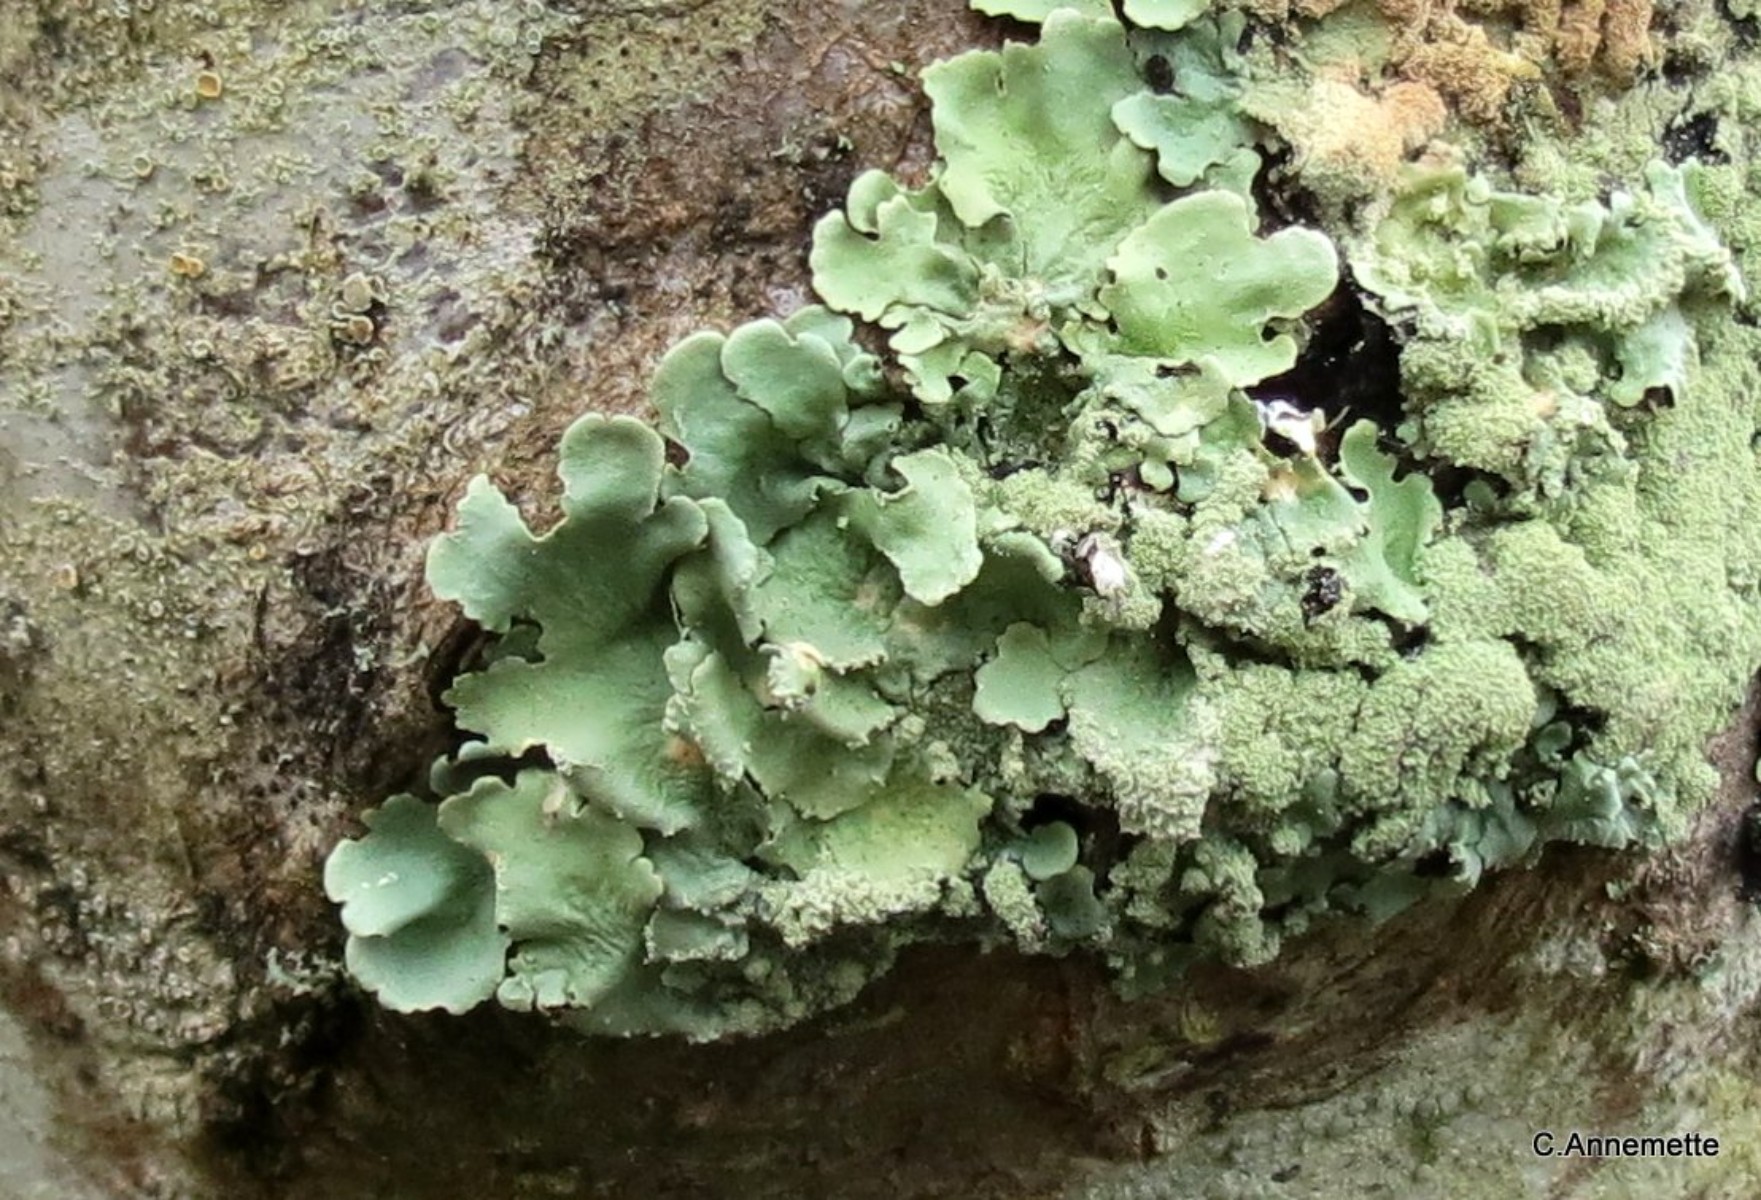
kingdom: Fungi
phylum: Ascomycota
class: Lecanoromycetes
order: Lecanorales
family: Parmeliaceae
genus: Flavoparmelia
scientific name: Flavoparmelia caperata
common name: gulgrøn skållav
